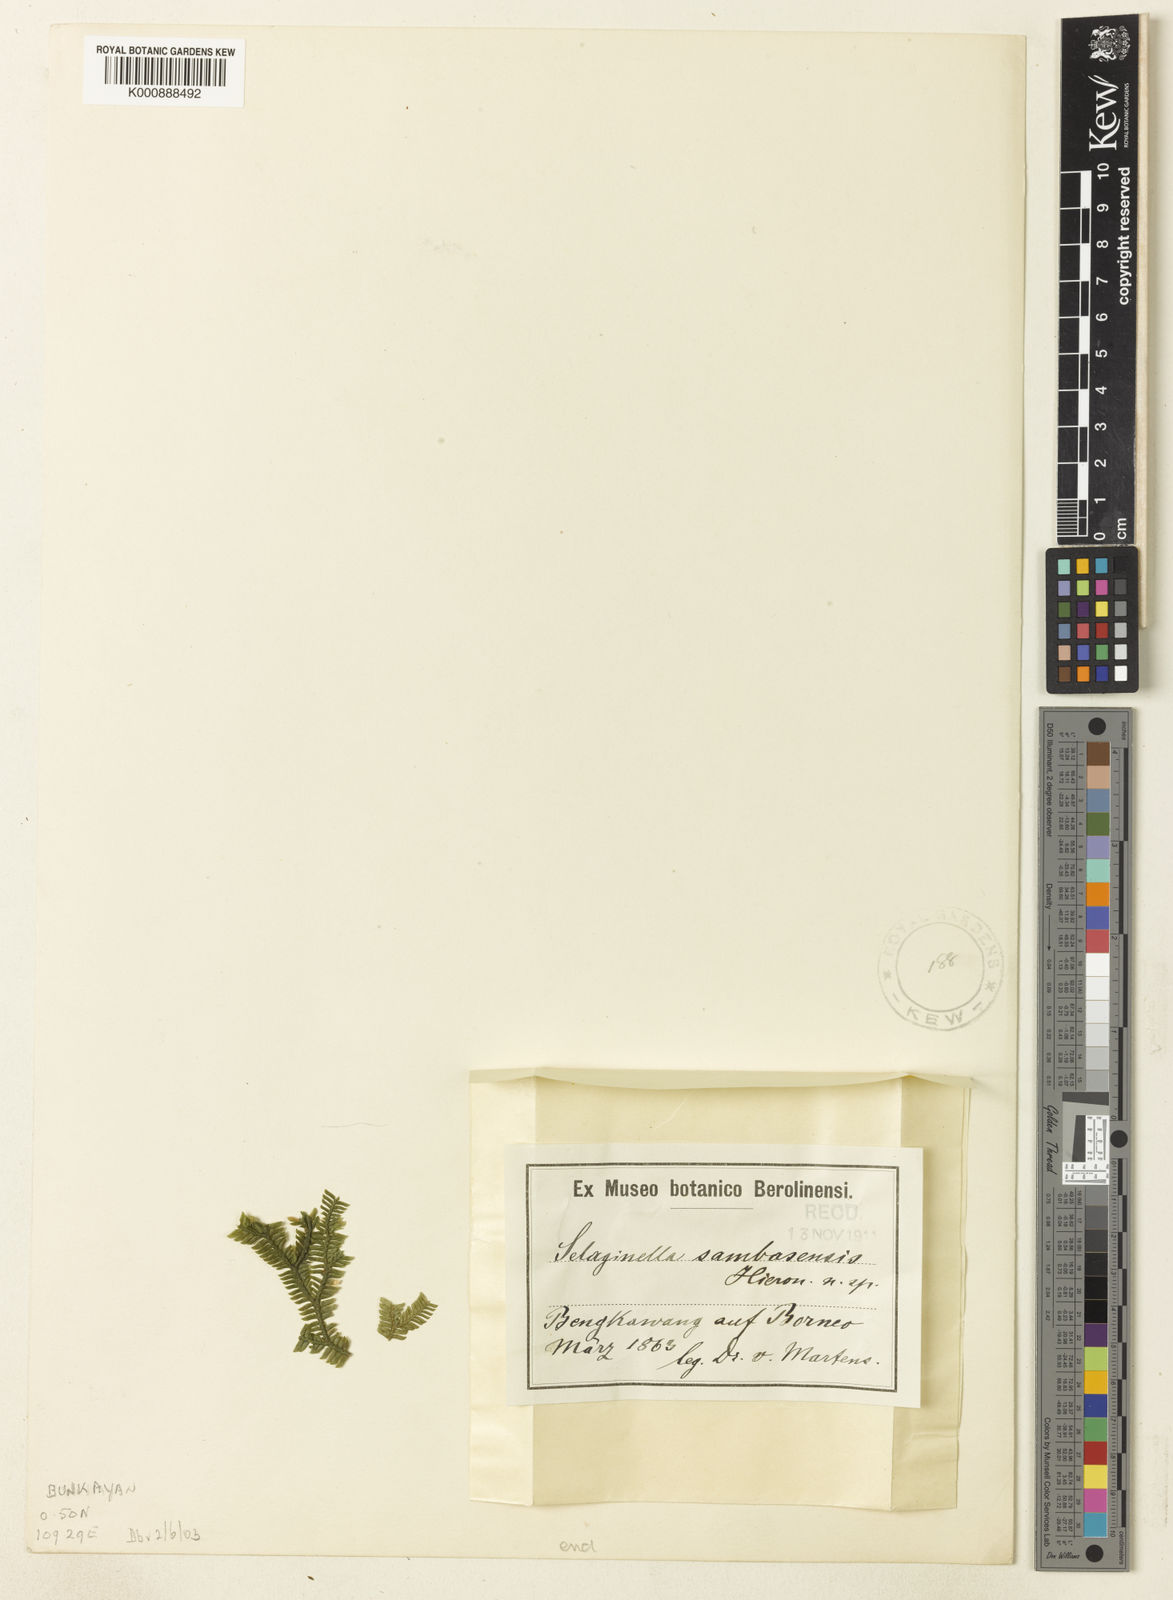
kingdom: Plantae
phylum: Tracheophyta
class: Lycopodiopsida
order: Selaginellales
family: Selaginellaceae
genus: Selaginella
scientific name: Selaginella sambasensis
